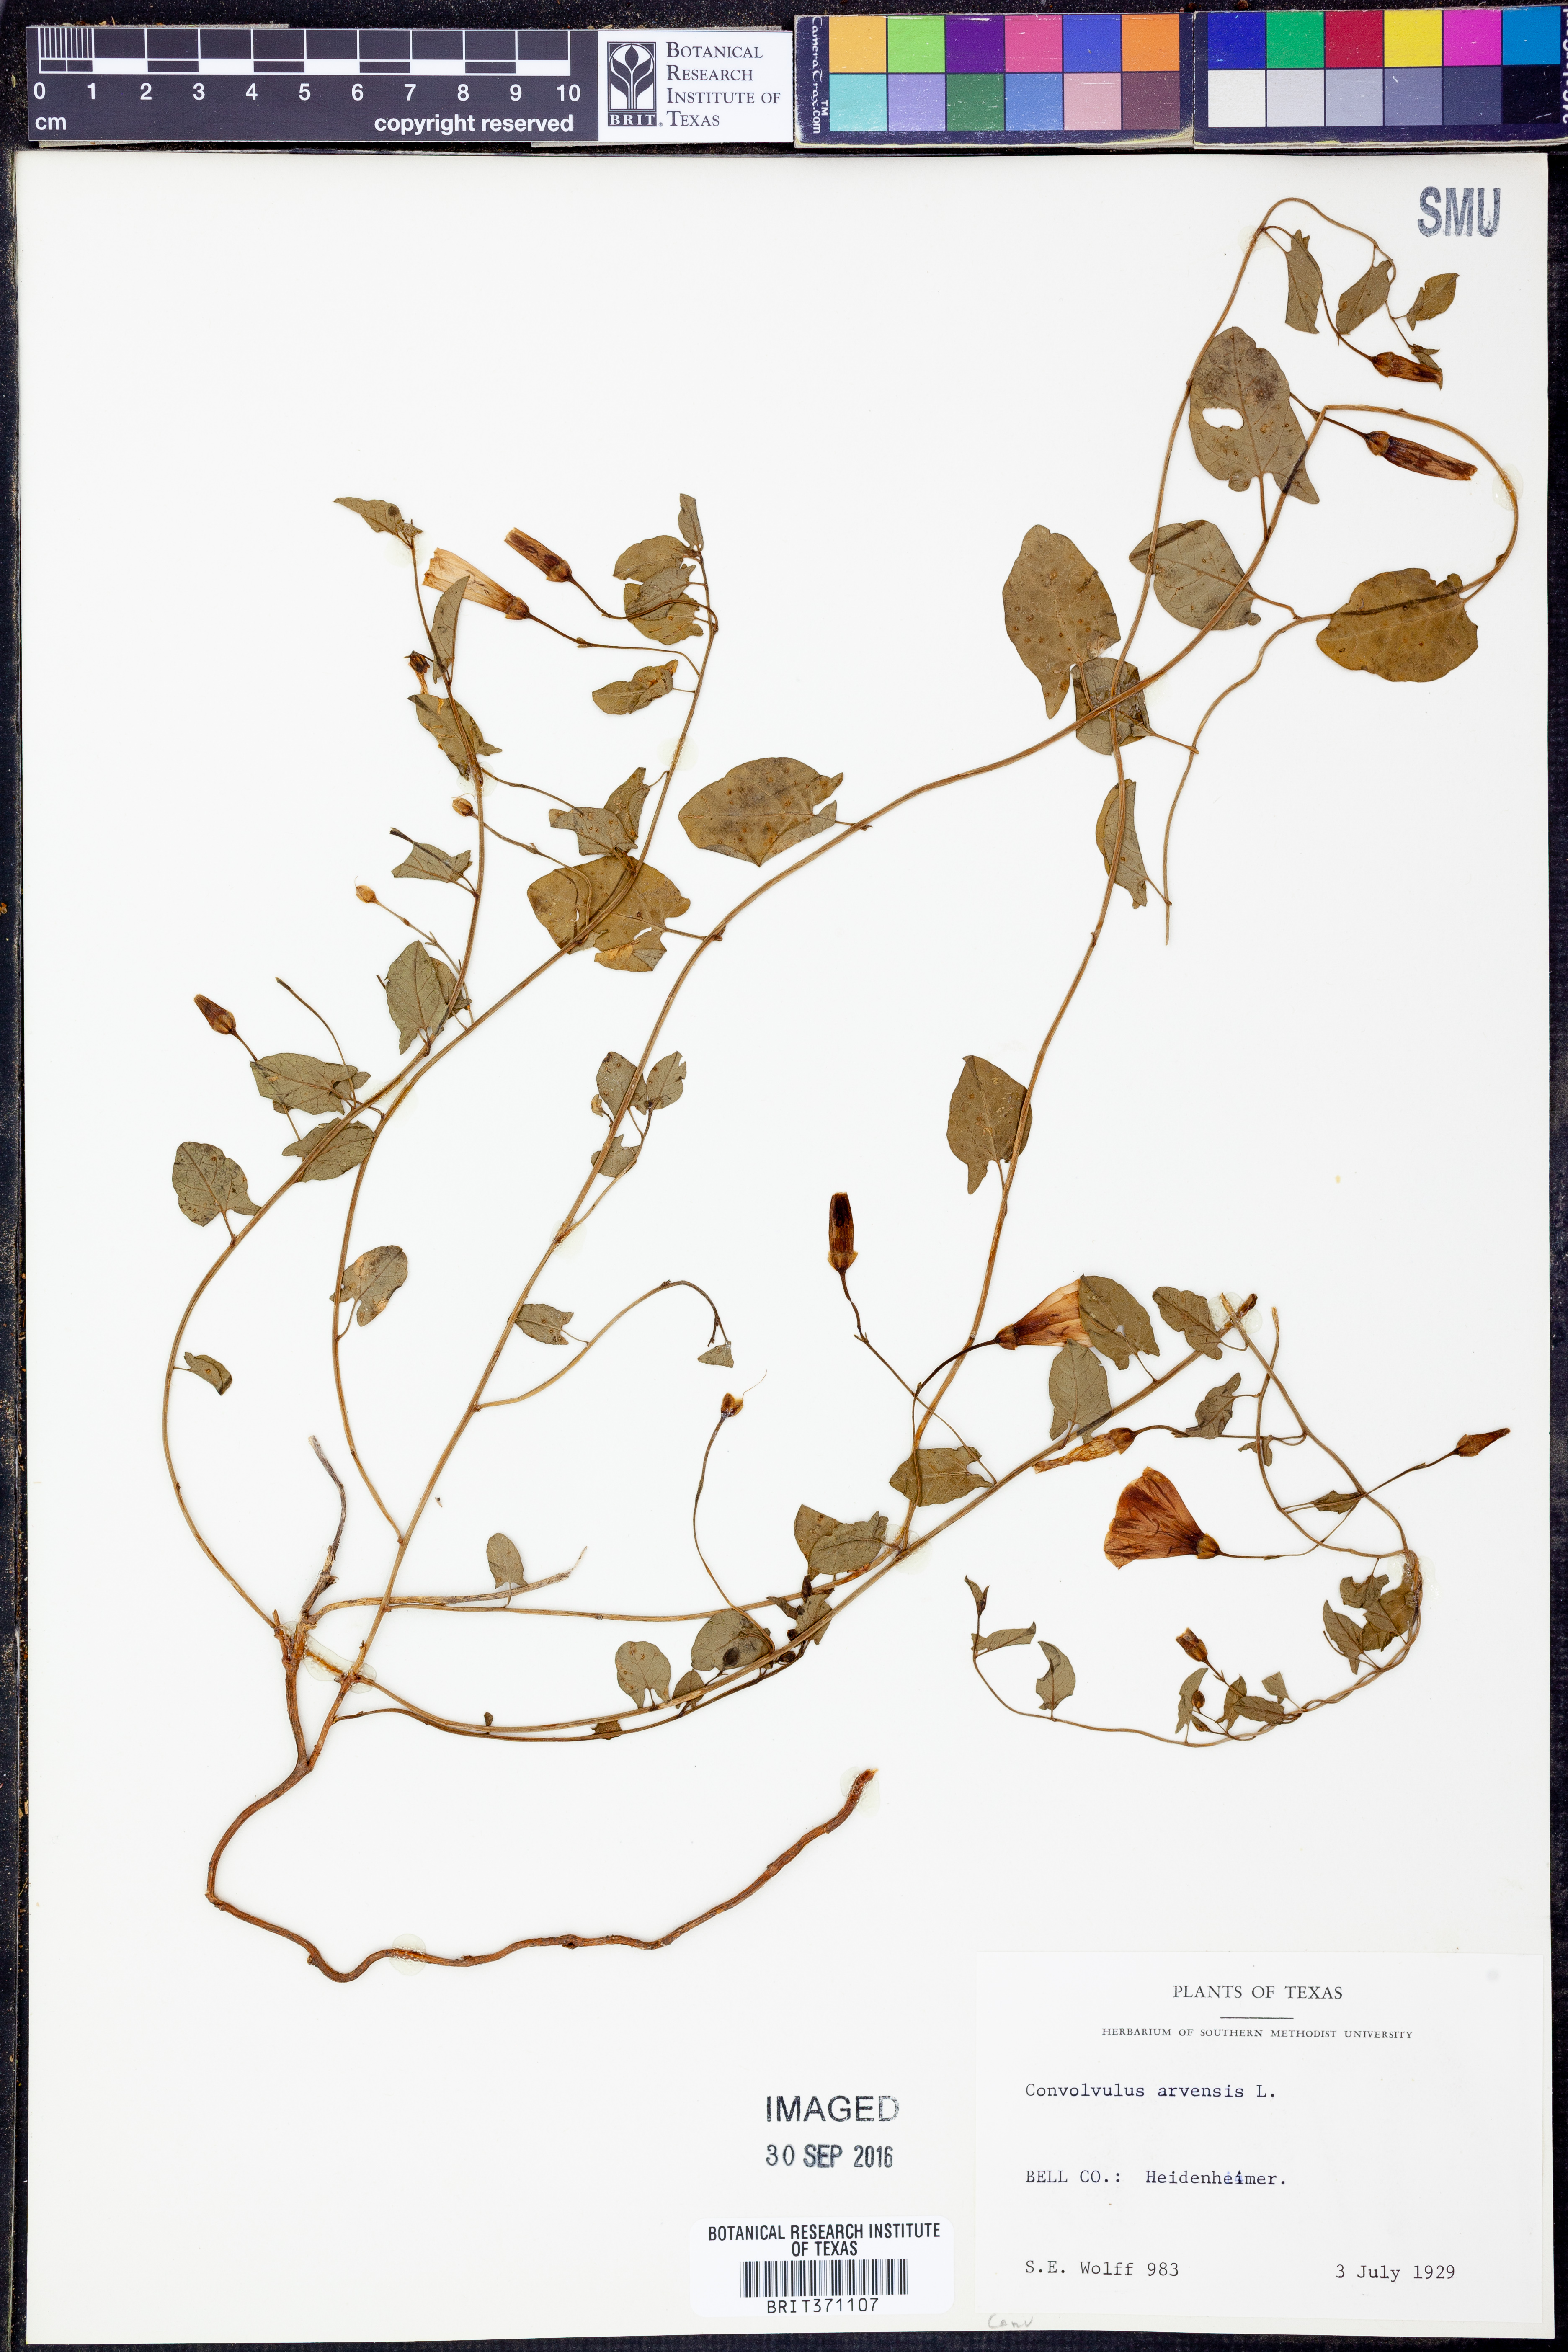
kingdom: Plantae
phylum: Tracheophyta
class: Magnoliopsida
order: Solanales
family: Convolvulaceae
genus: Convolvulus
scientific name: Convolvulus arvensis
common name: Field bindweed
